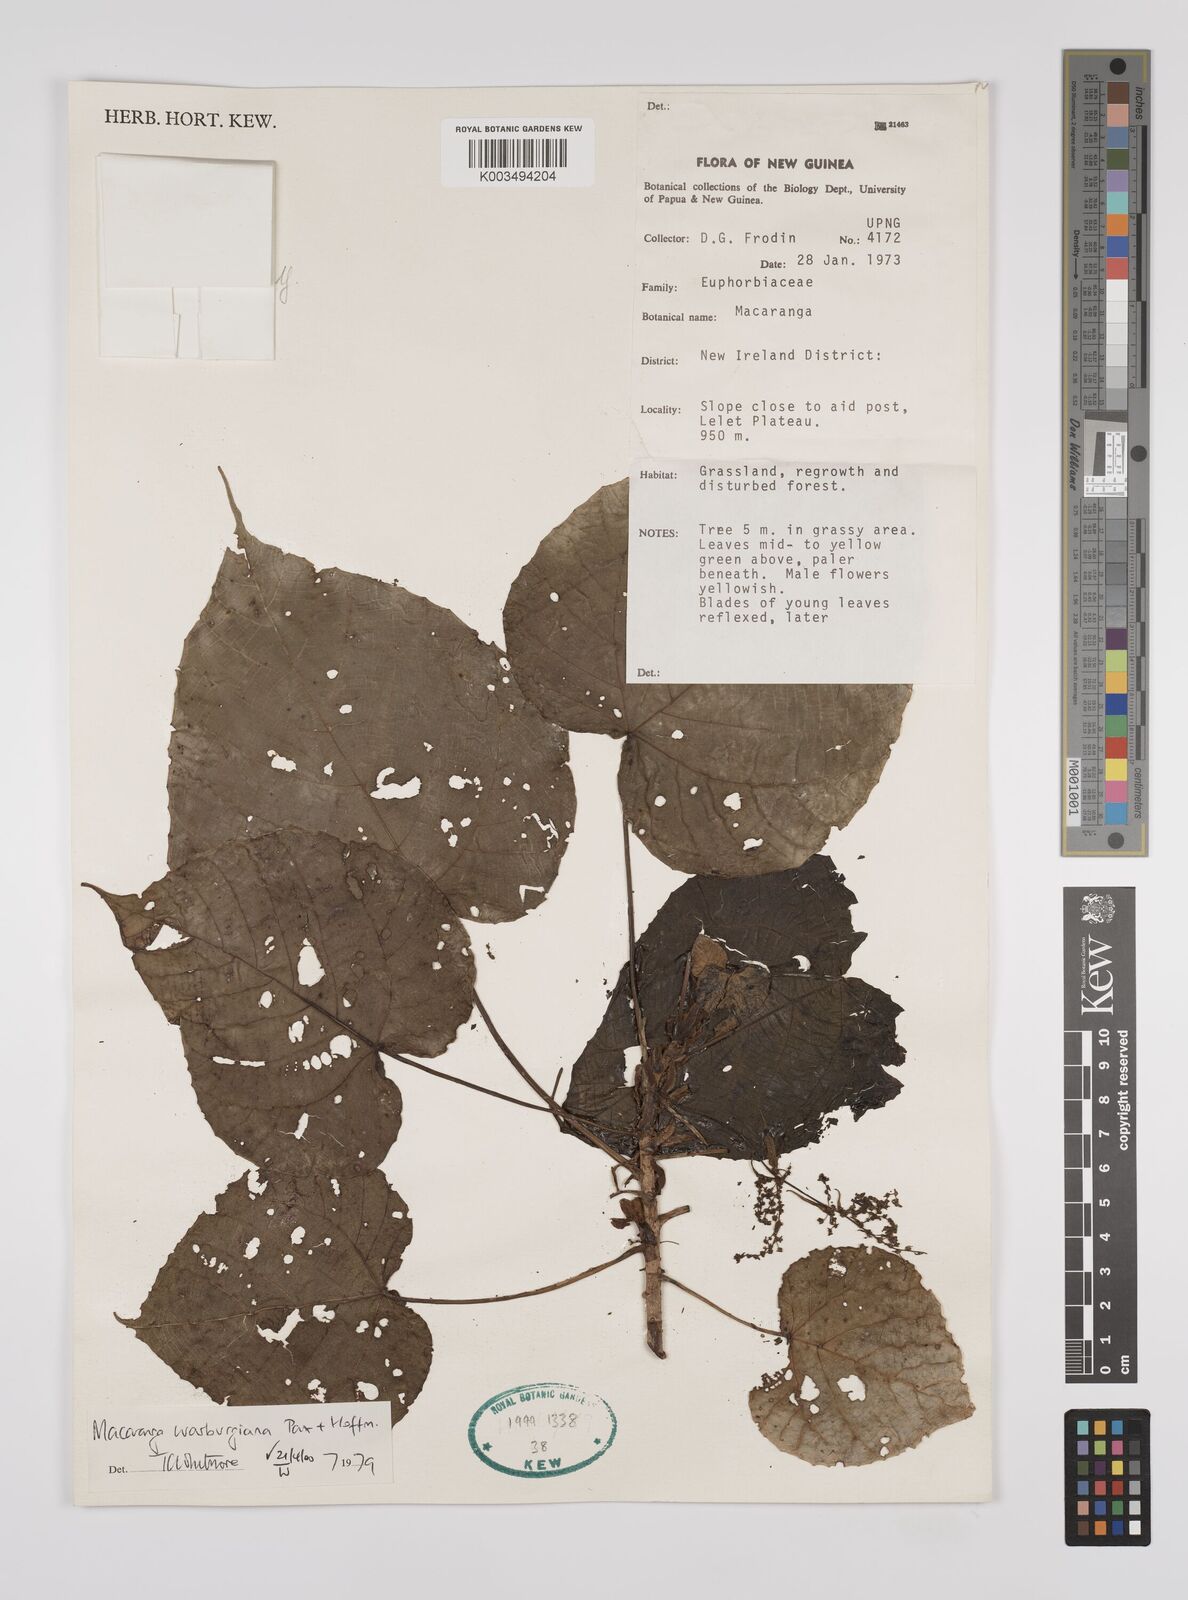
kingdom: Plantae
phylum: Tracheophyta
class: Magnoliopsida
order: Malpighiales
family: Euphorbiaceae
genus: Macaranga
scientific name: Macaranga warburgiana
